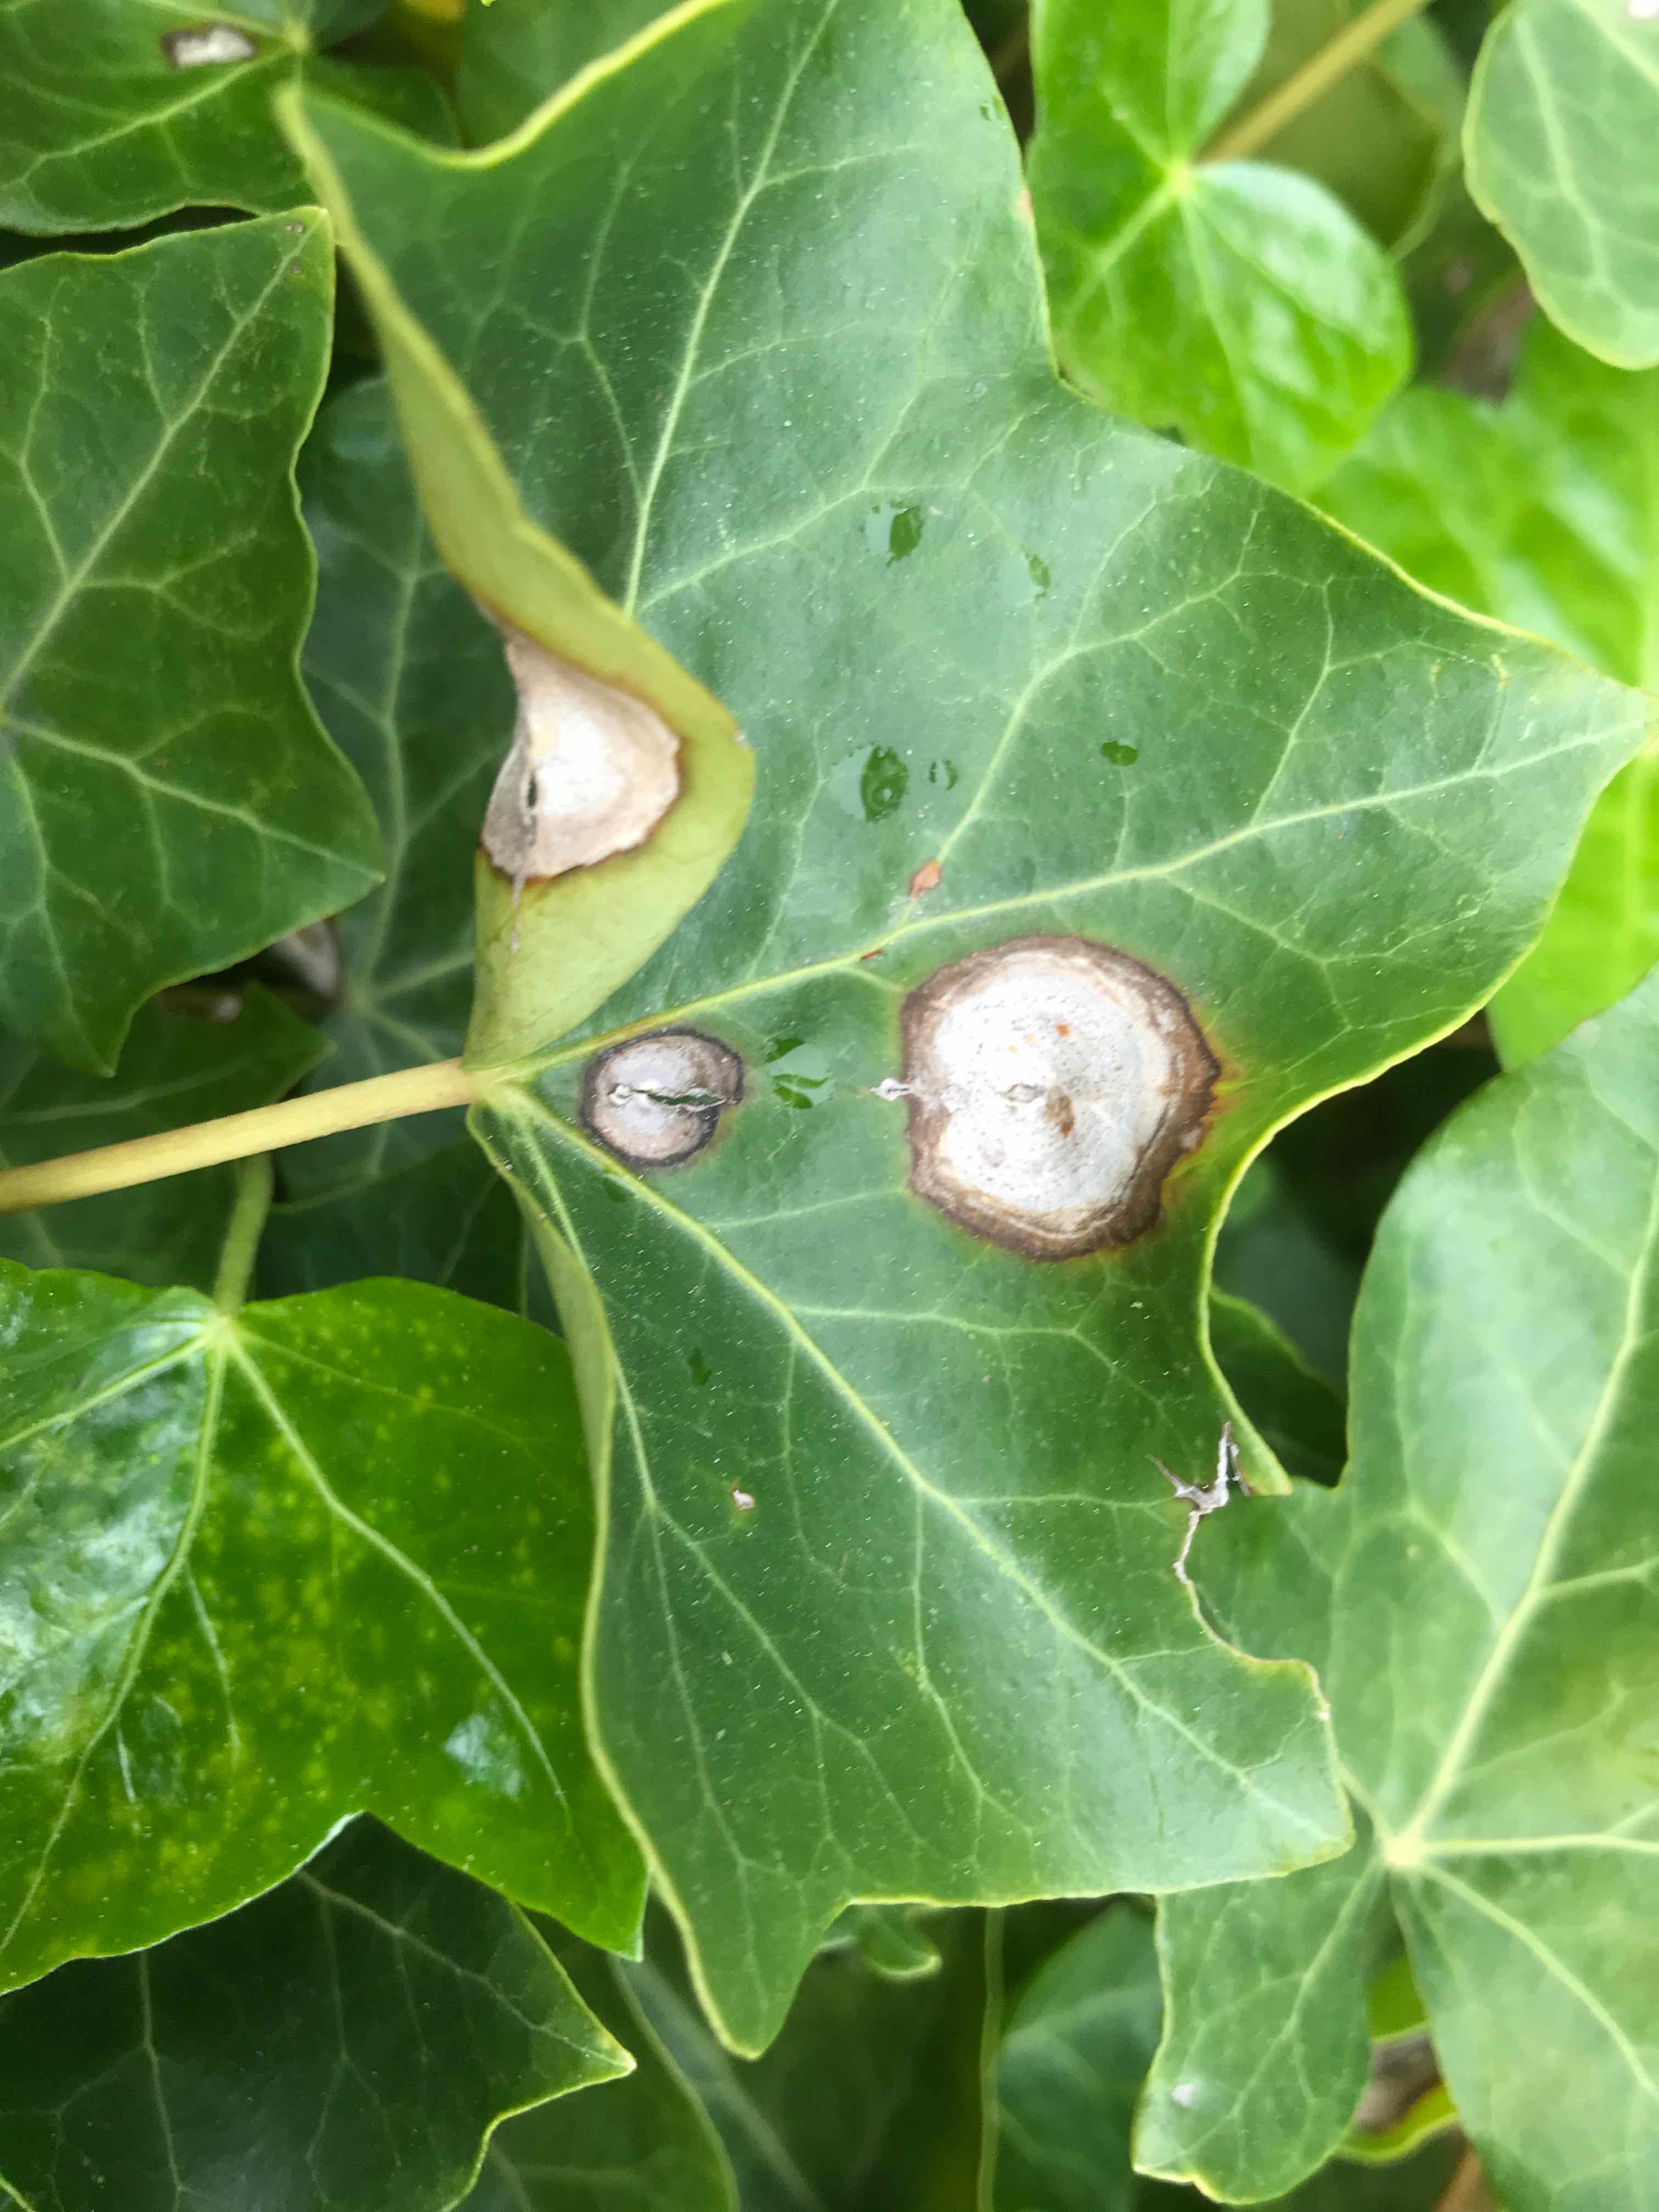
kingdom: Fungi
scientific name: Fungi
